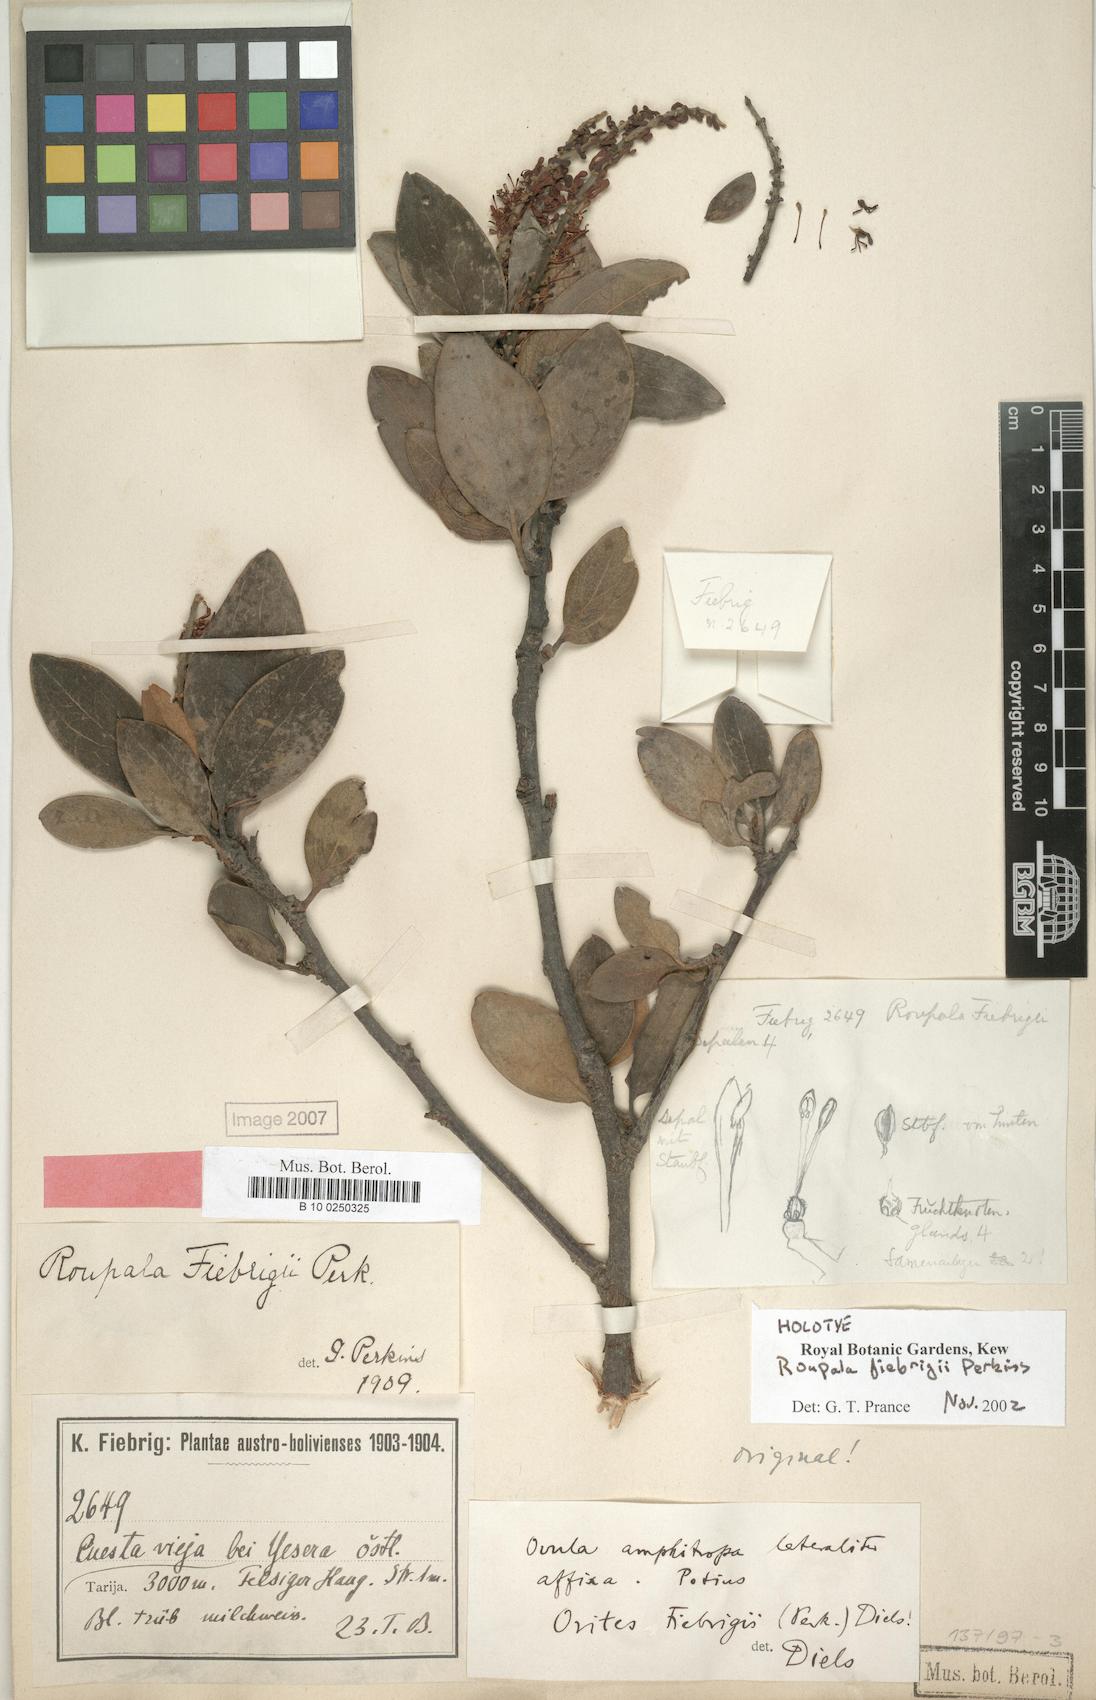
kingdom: Plantae
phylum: Tracheophyta
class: Magnoliopsida
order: Proteales
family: Proteaceae
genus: Orites
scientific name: Orites fiebrigii
